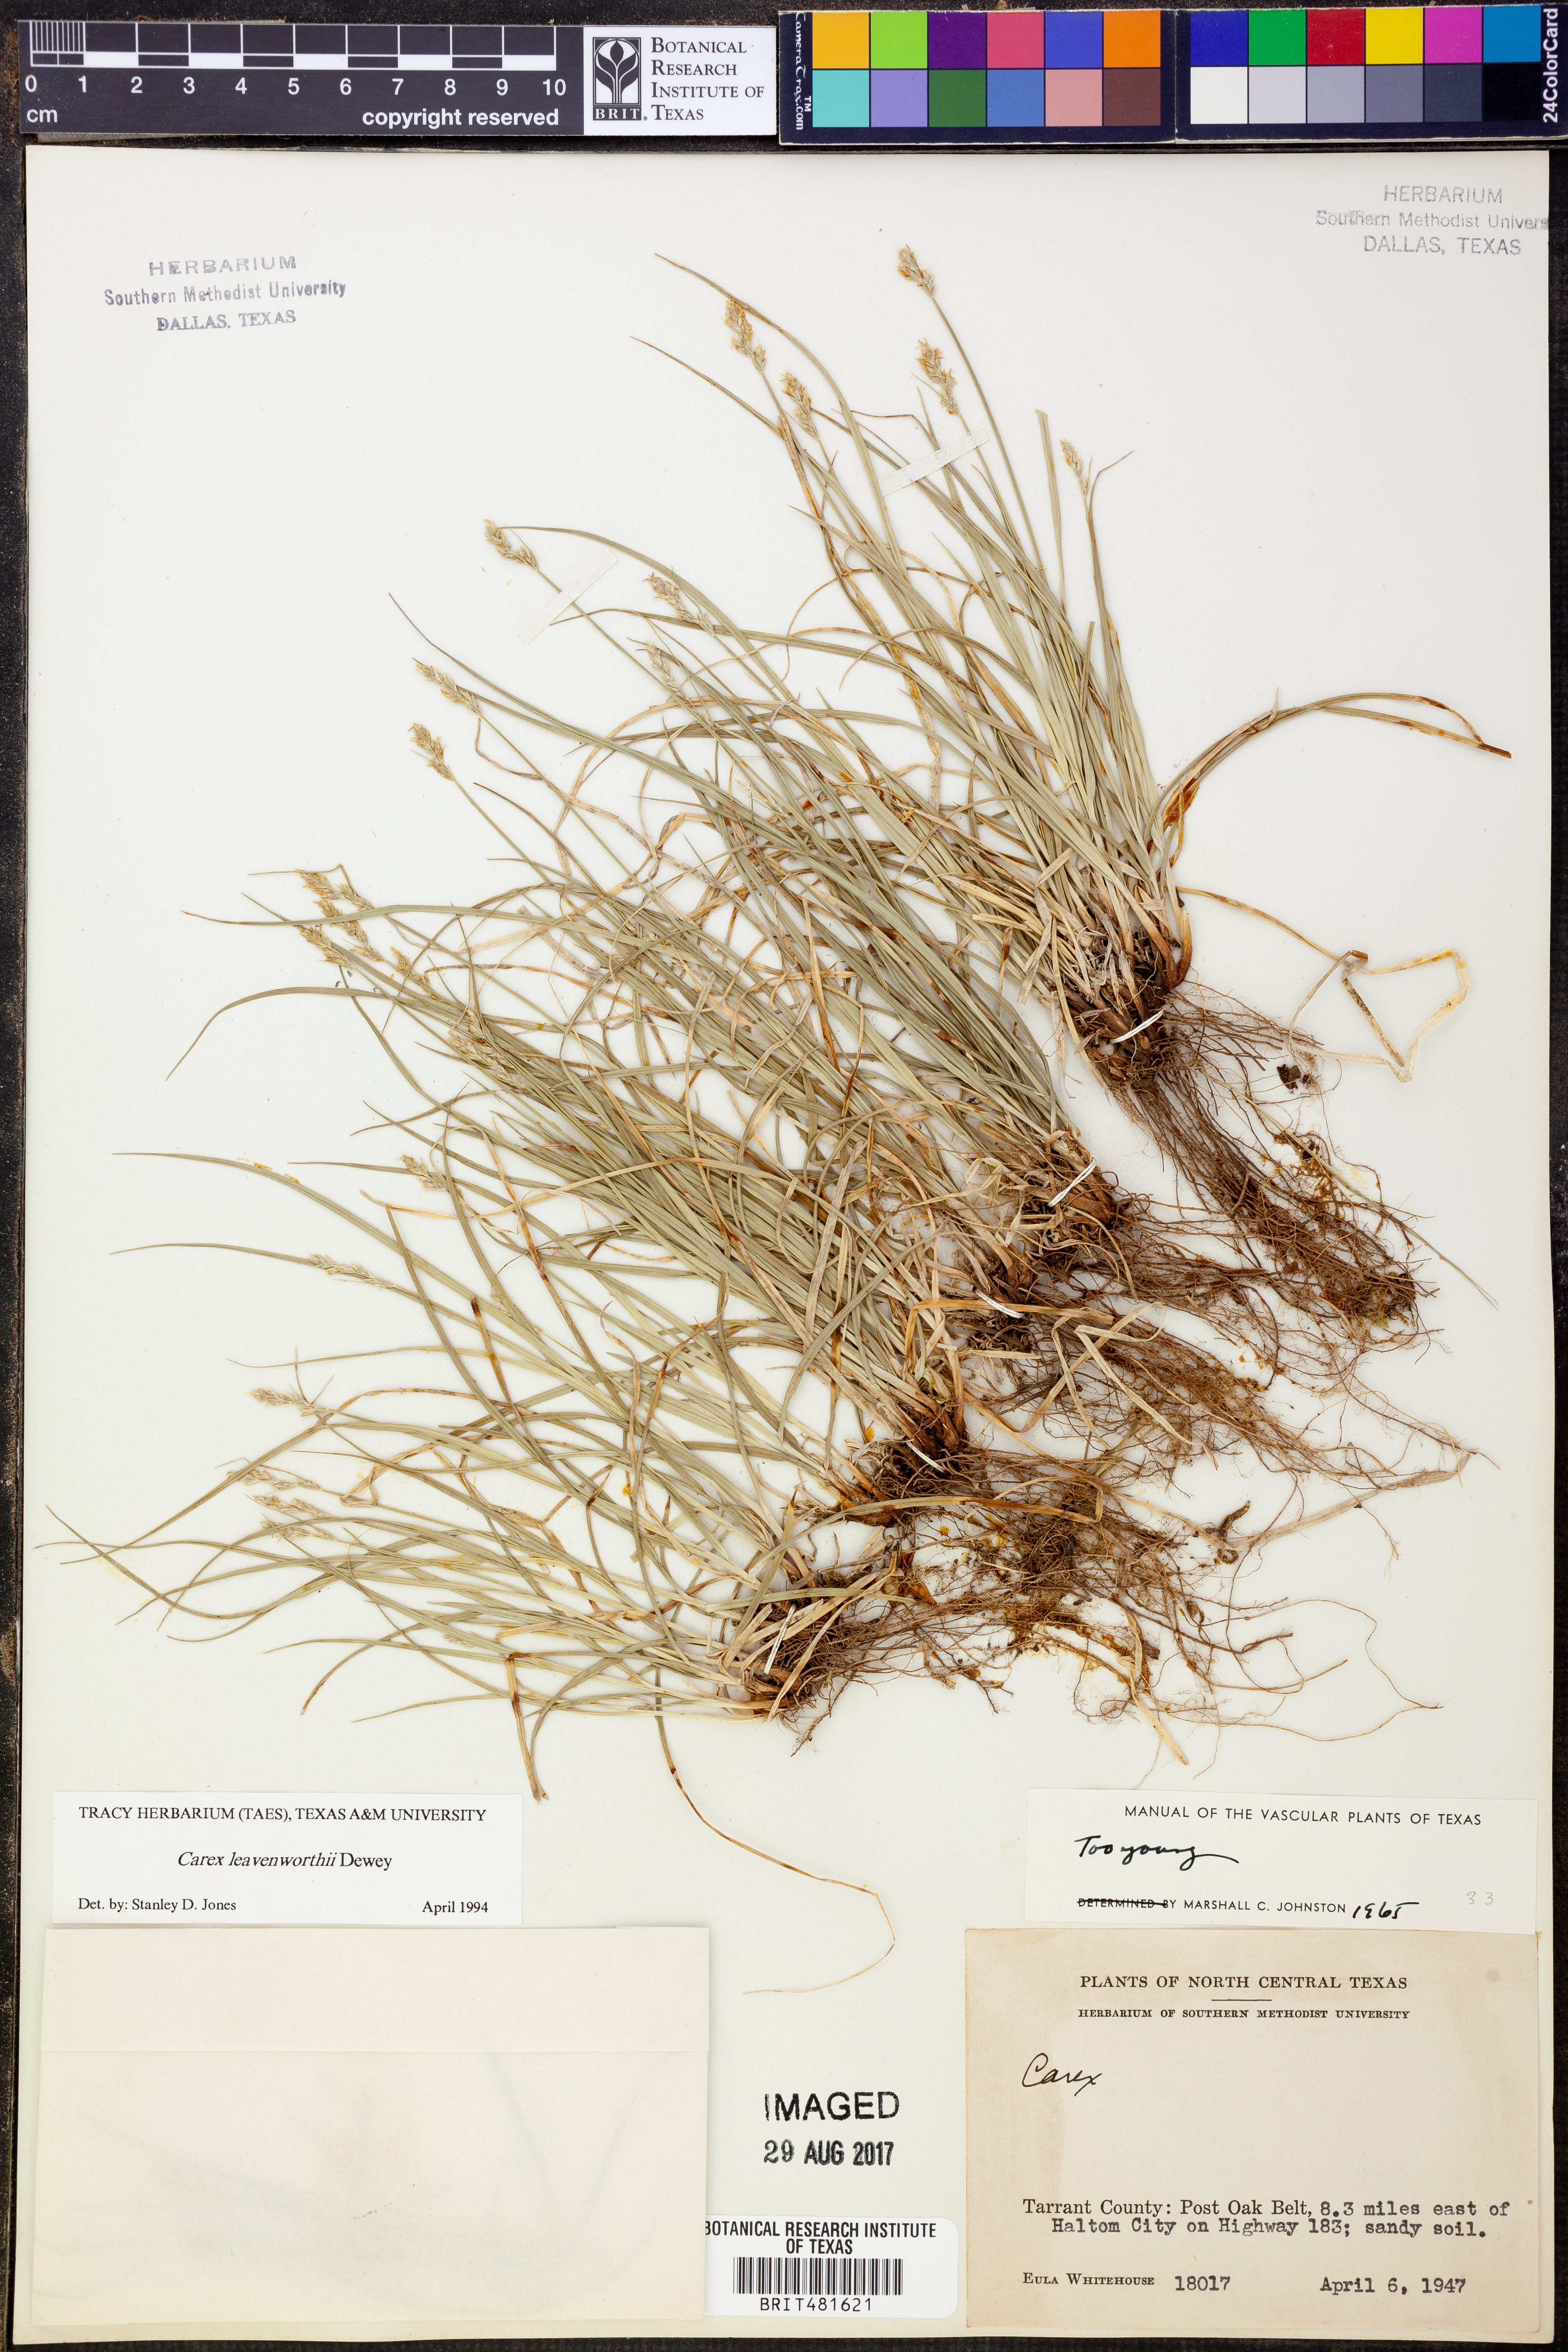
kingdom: Plantae
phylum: Tracheophyta
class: Liliopsida
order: Poales
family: Cyperaceae
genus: Carex
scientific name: Carex leavenworthii
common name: Leavenworth's bracted sedge
